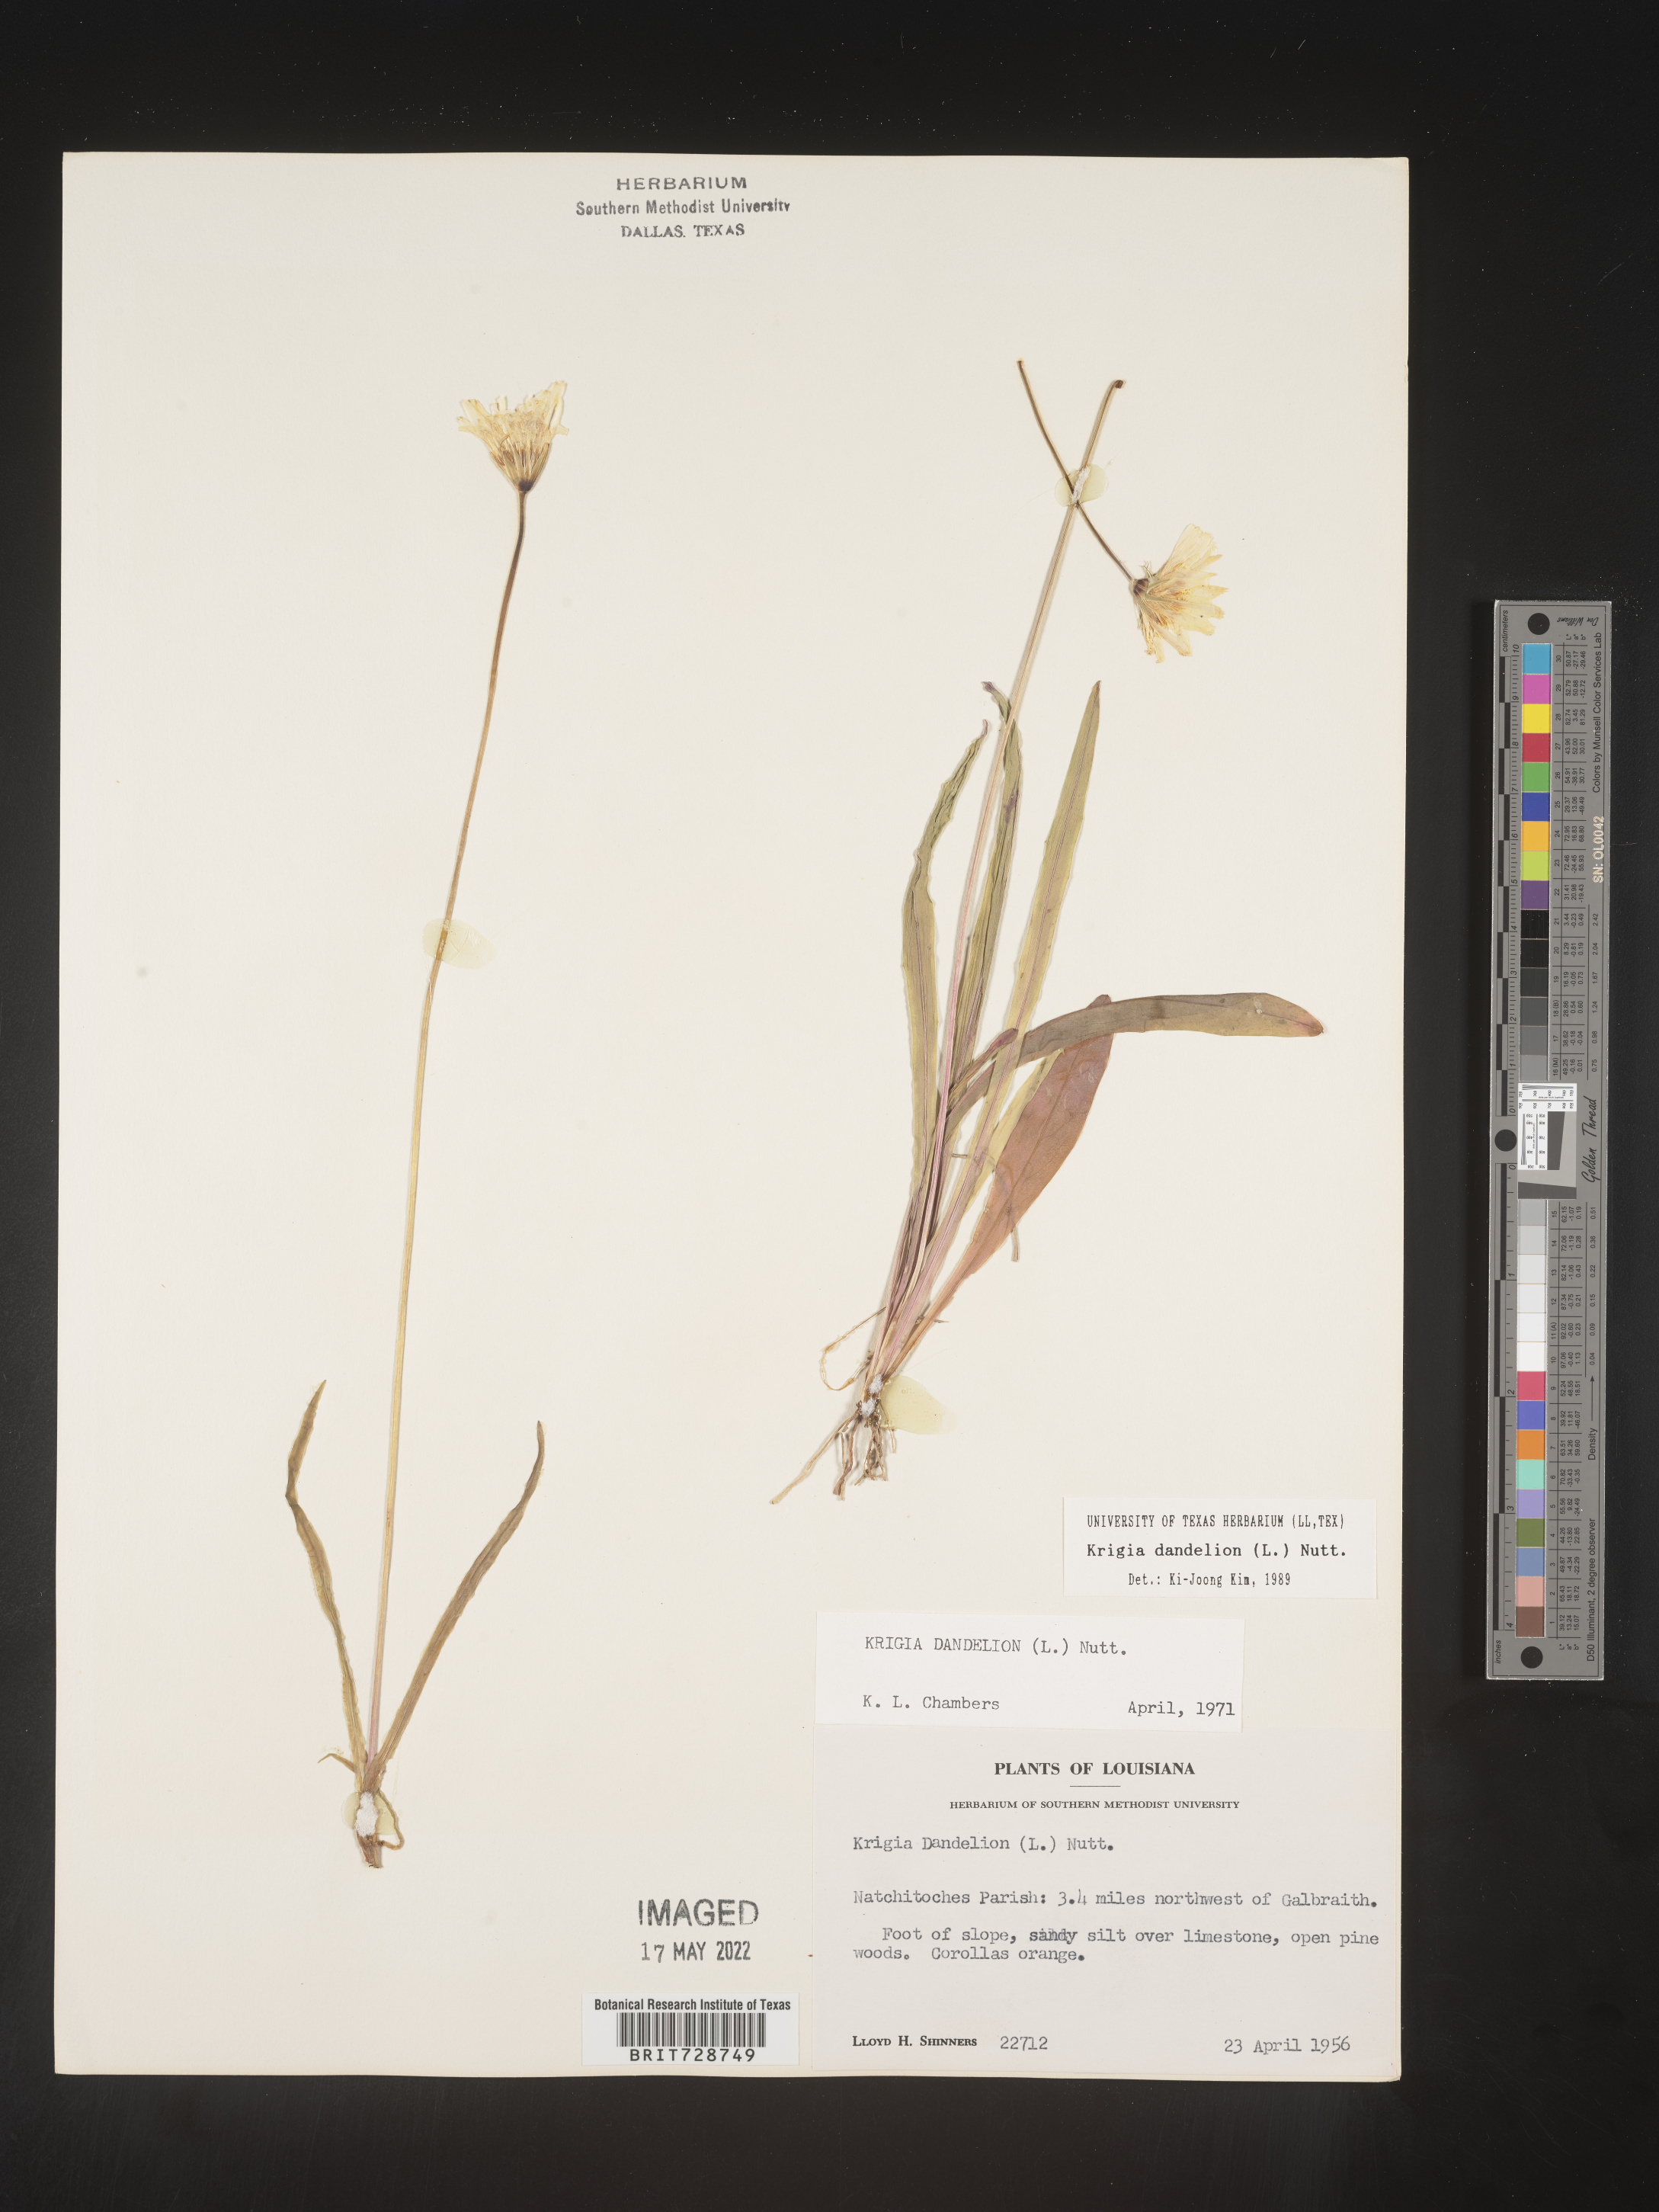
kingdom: Plantae
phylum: Tracheophyta
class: Magnoliopsida
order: Asterales
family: Asteraceae
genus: Krigia
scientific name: Krigia dandelion
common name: Colonial dwarf-dandelion
